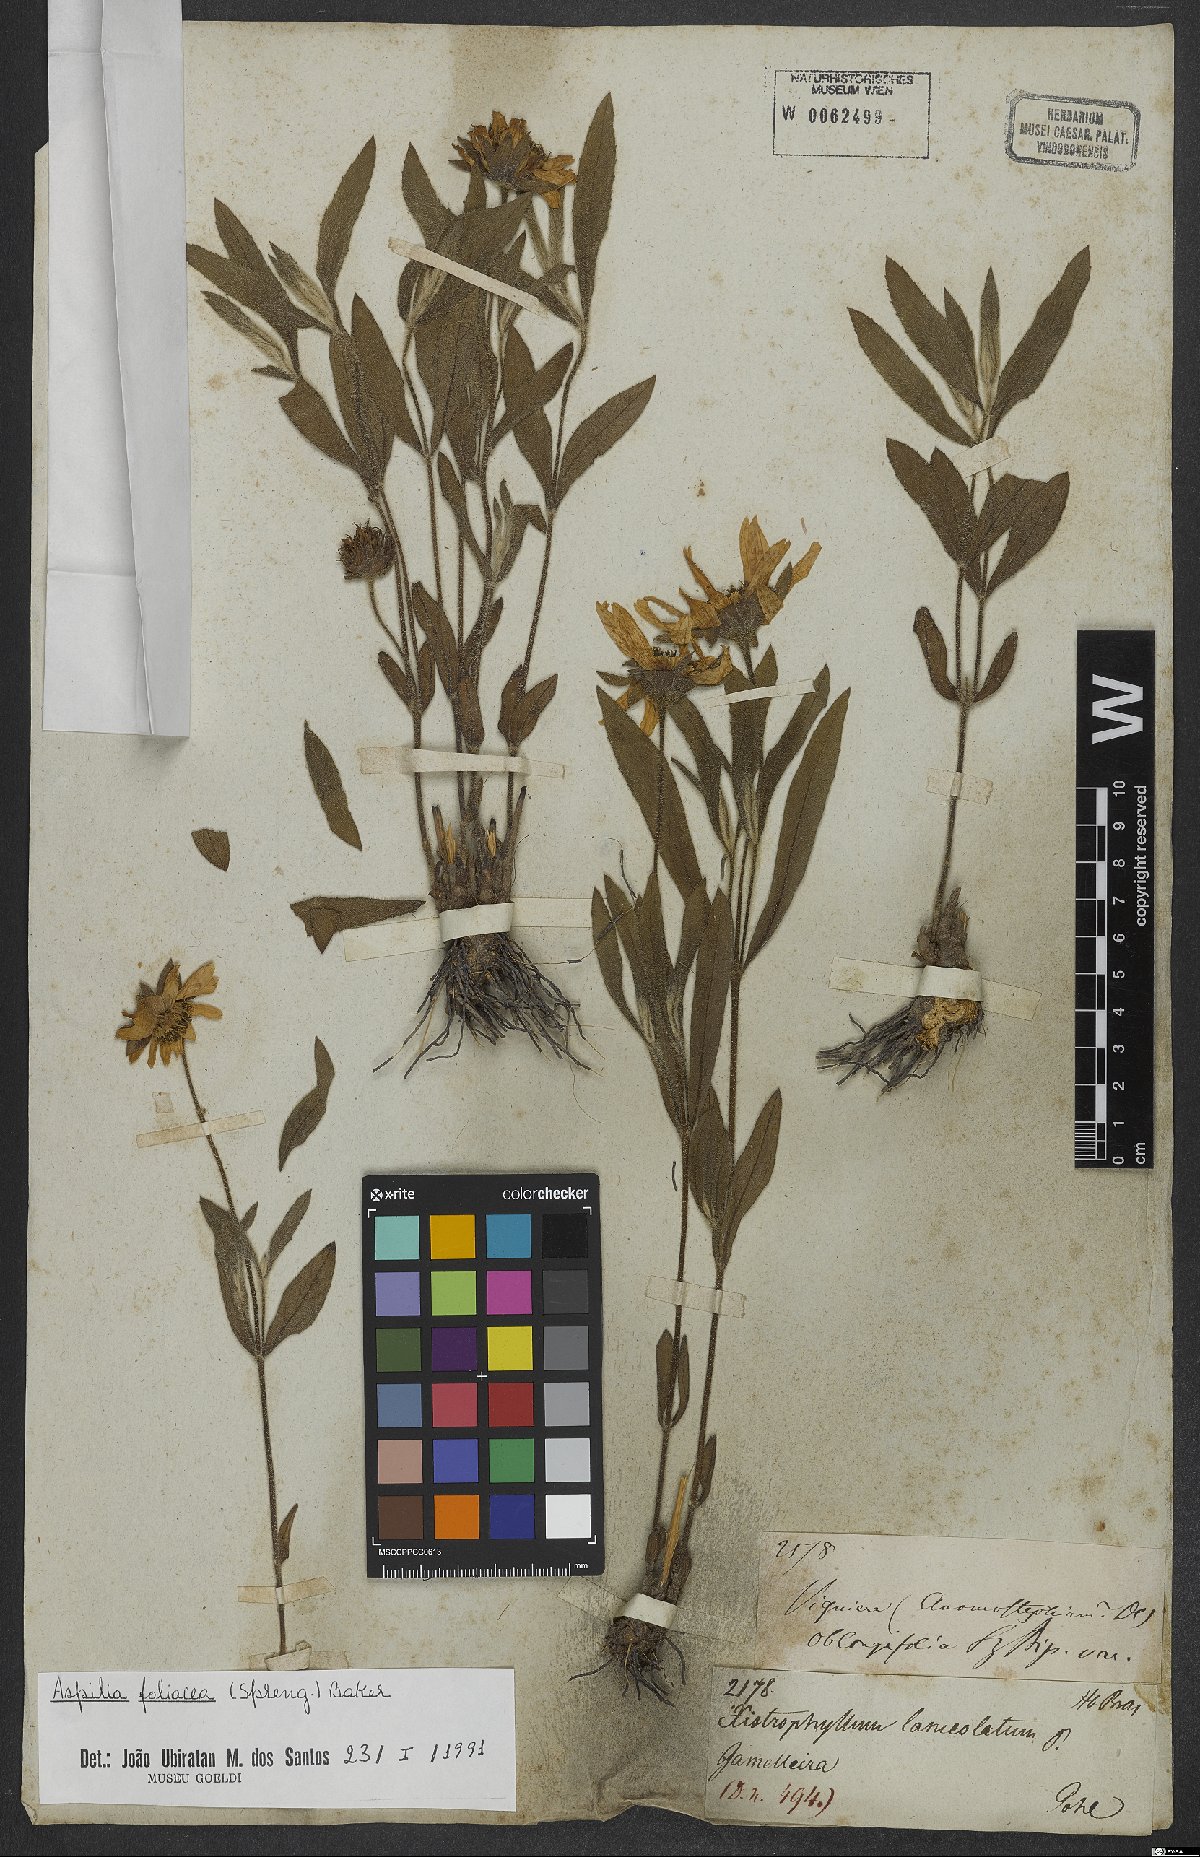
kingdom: Plantae
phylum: Tracheophyta
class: Magnoliopsida
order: Asterales
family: Asteraceae
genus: Aspilia
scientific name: Aspilia foliosa
